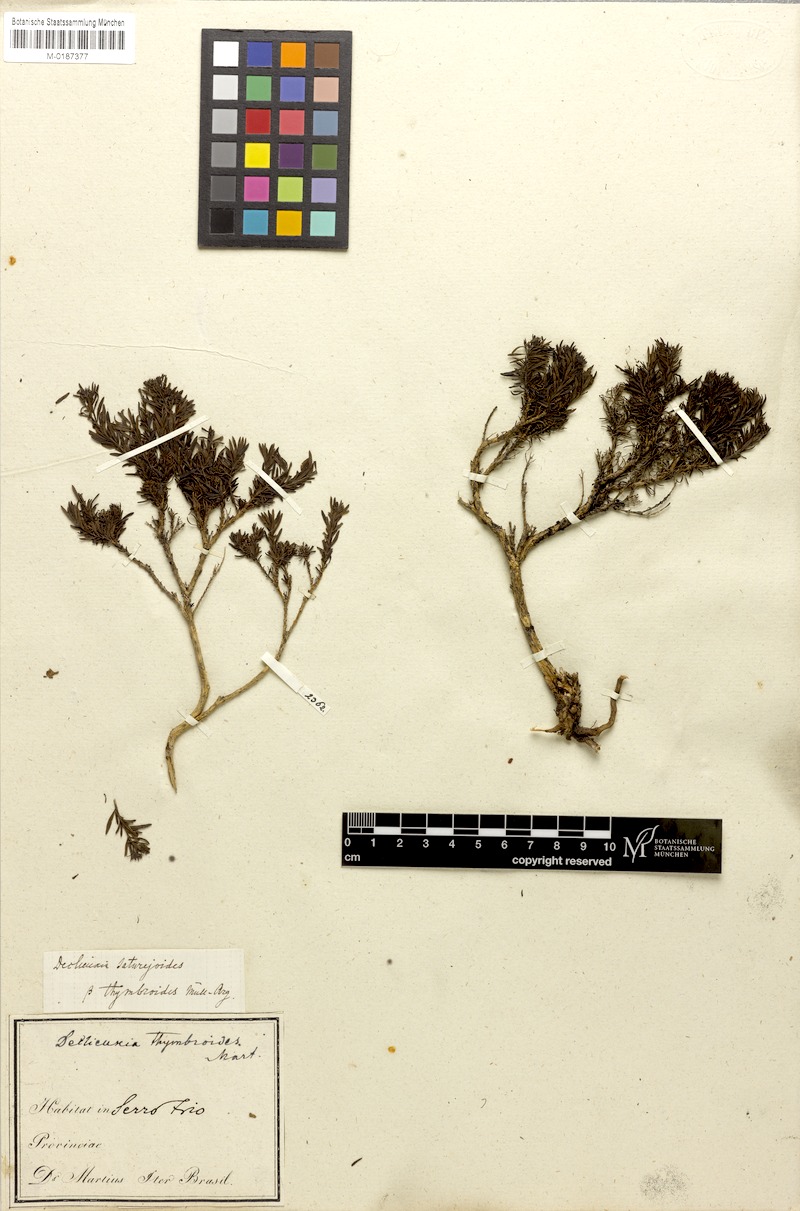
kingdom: Plantae
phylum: Tracheophyta
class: Magnoliopsida
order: Gentianales
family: Rubiaceae
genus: Declieuxia
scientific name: Declieuxia saturejoides
